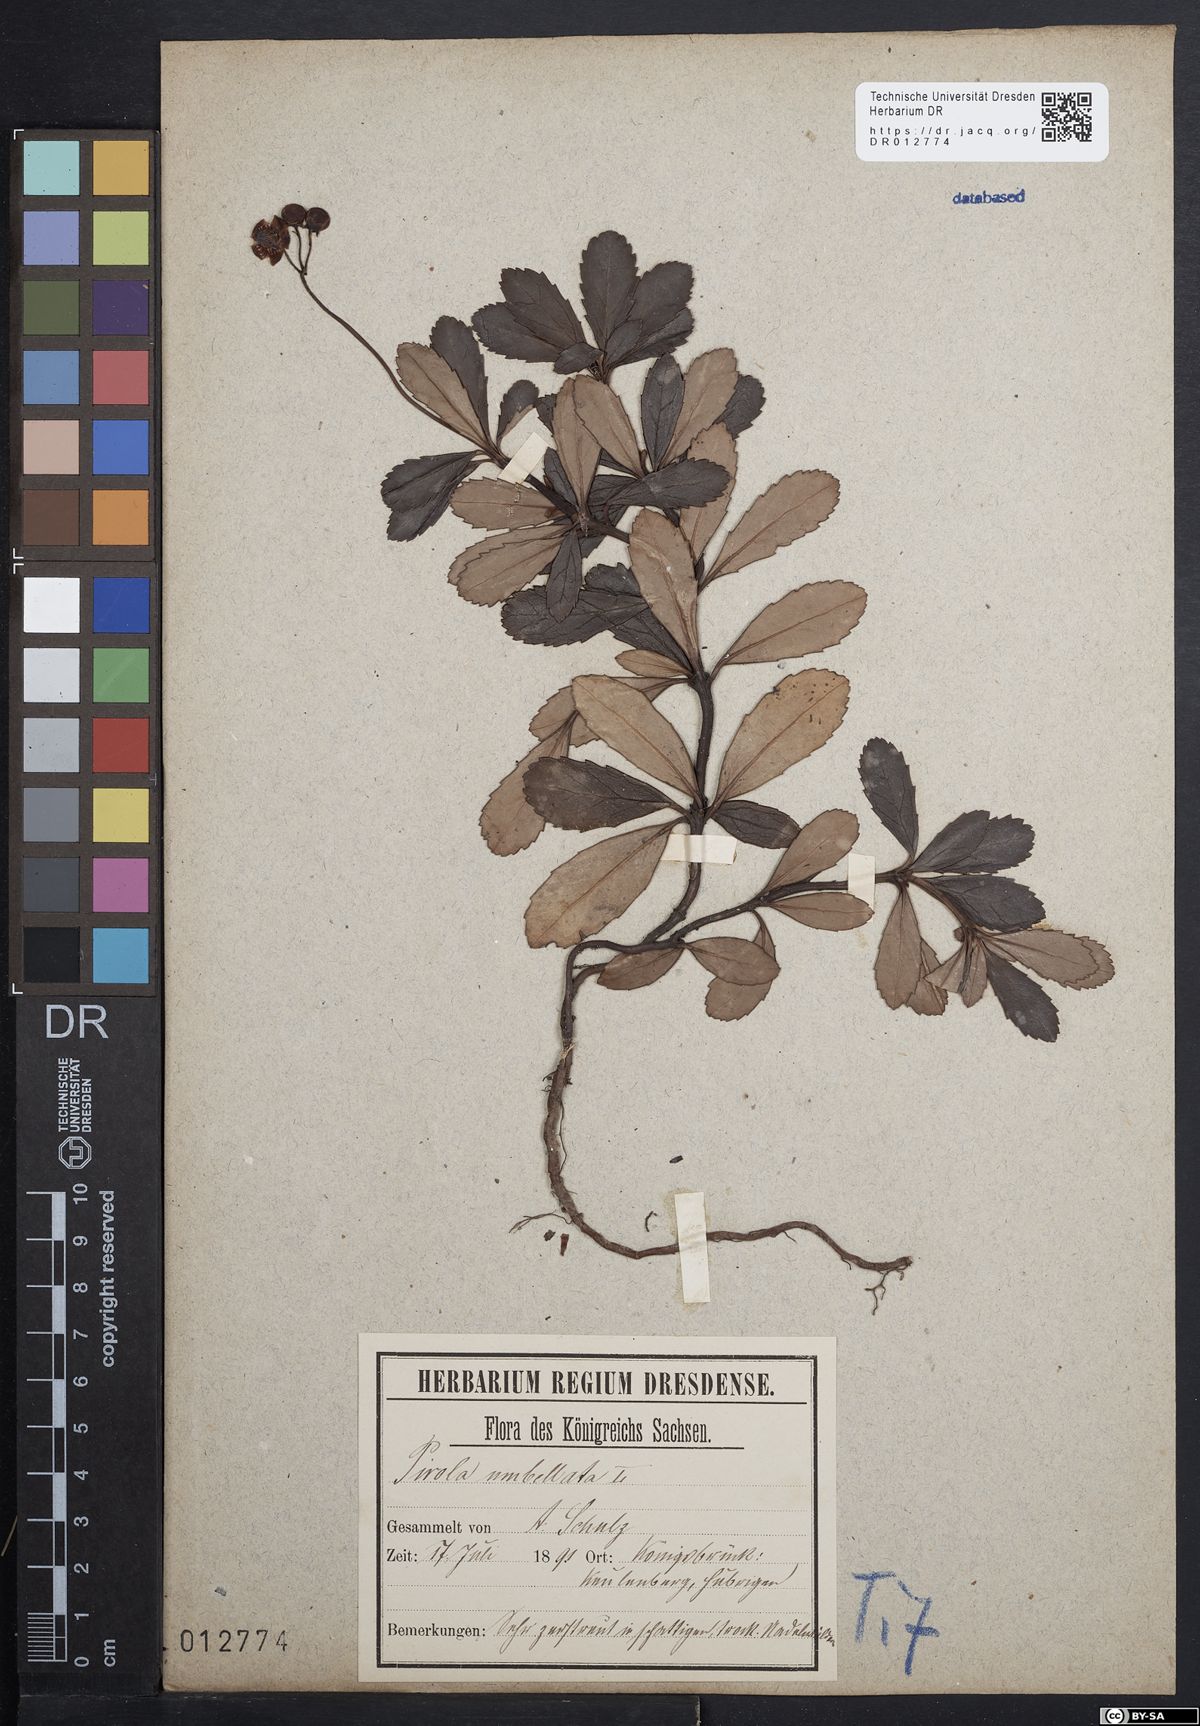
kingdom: Plantae
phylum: Tracheophyta
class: Magnoliopsida
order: Ericales
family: Ericaceae
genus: Chimaphila
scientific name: Chimaphila umbellata
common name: Pipsissewa
